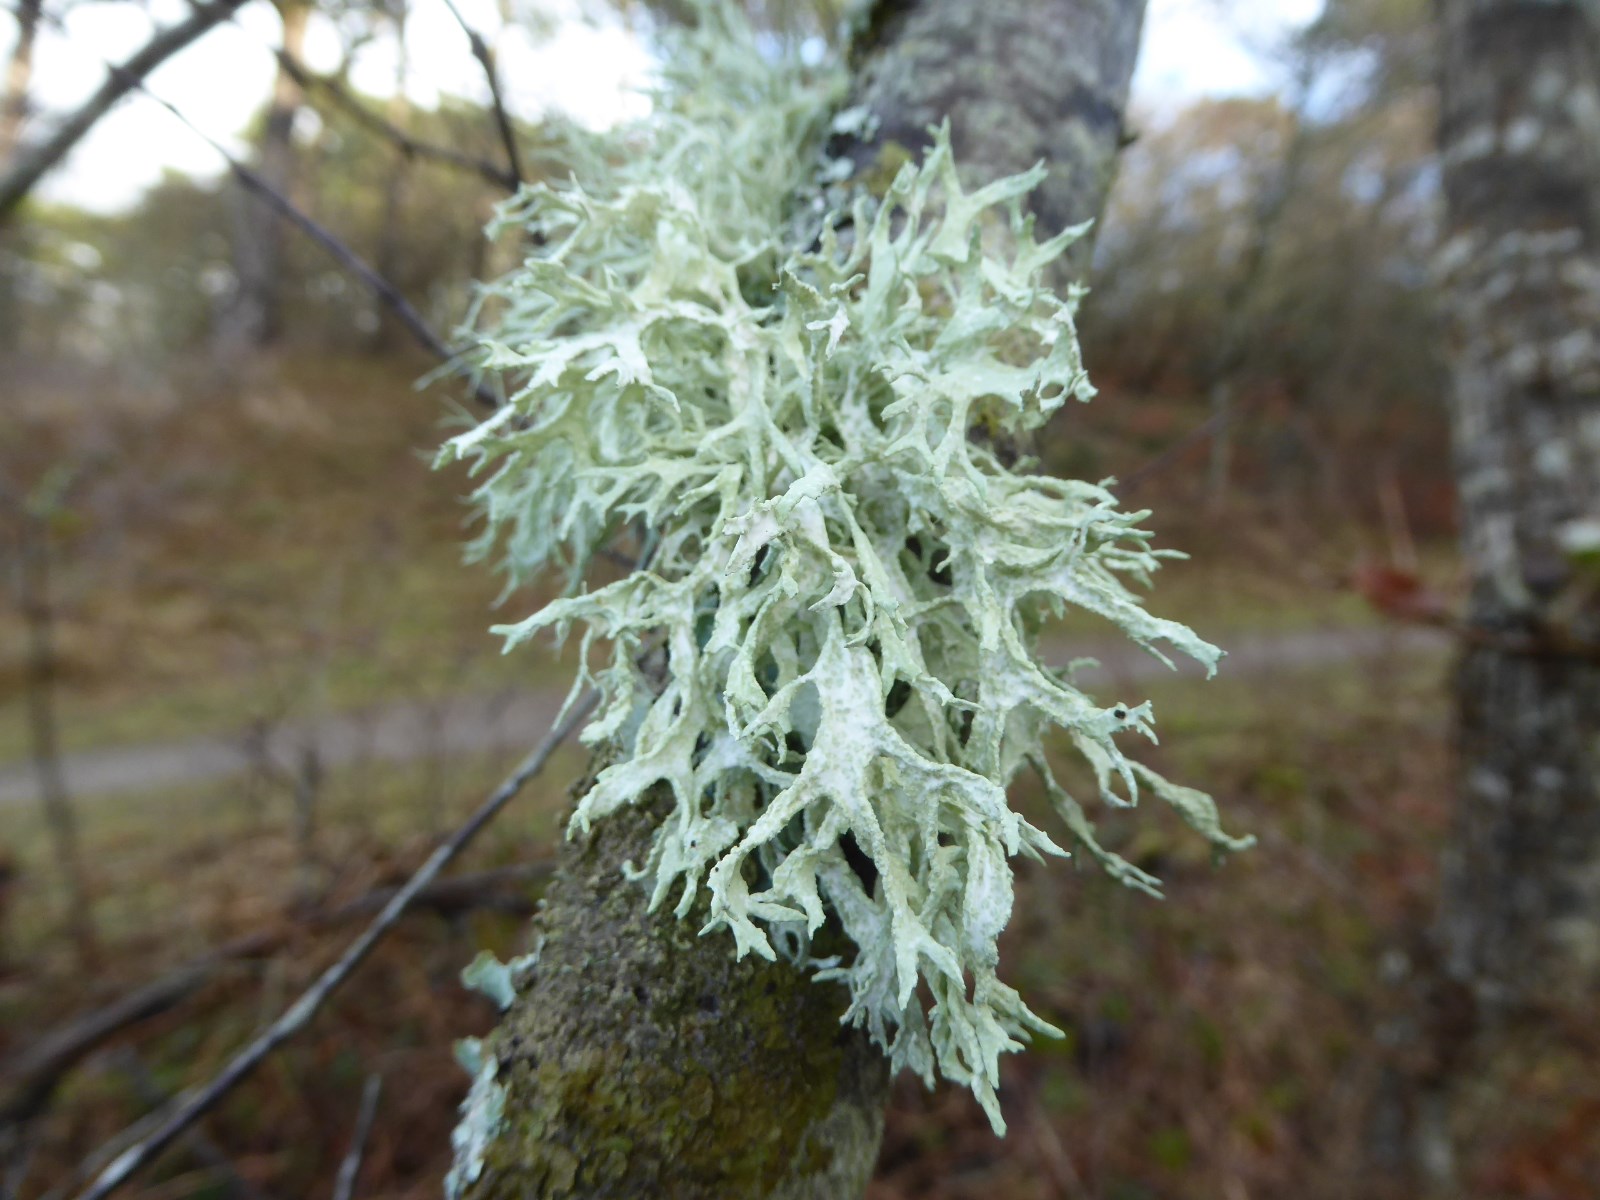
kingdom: Fungi
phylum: Ascomycota
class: Lecanoromycetes
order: Lecanorales
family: Parmeliaceae
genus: Evernia
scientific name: Evernia prunastri
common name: almindelig slåenlav
